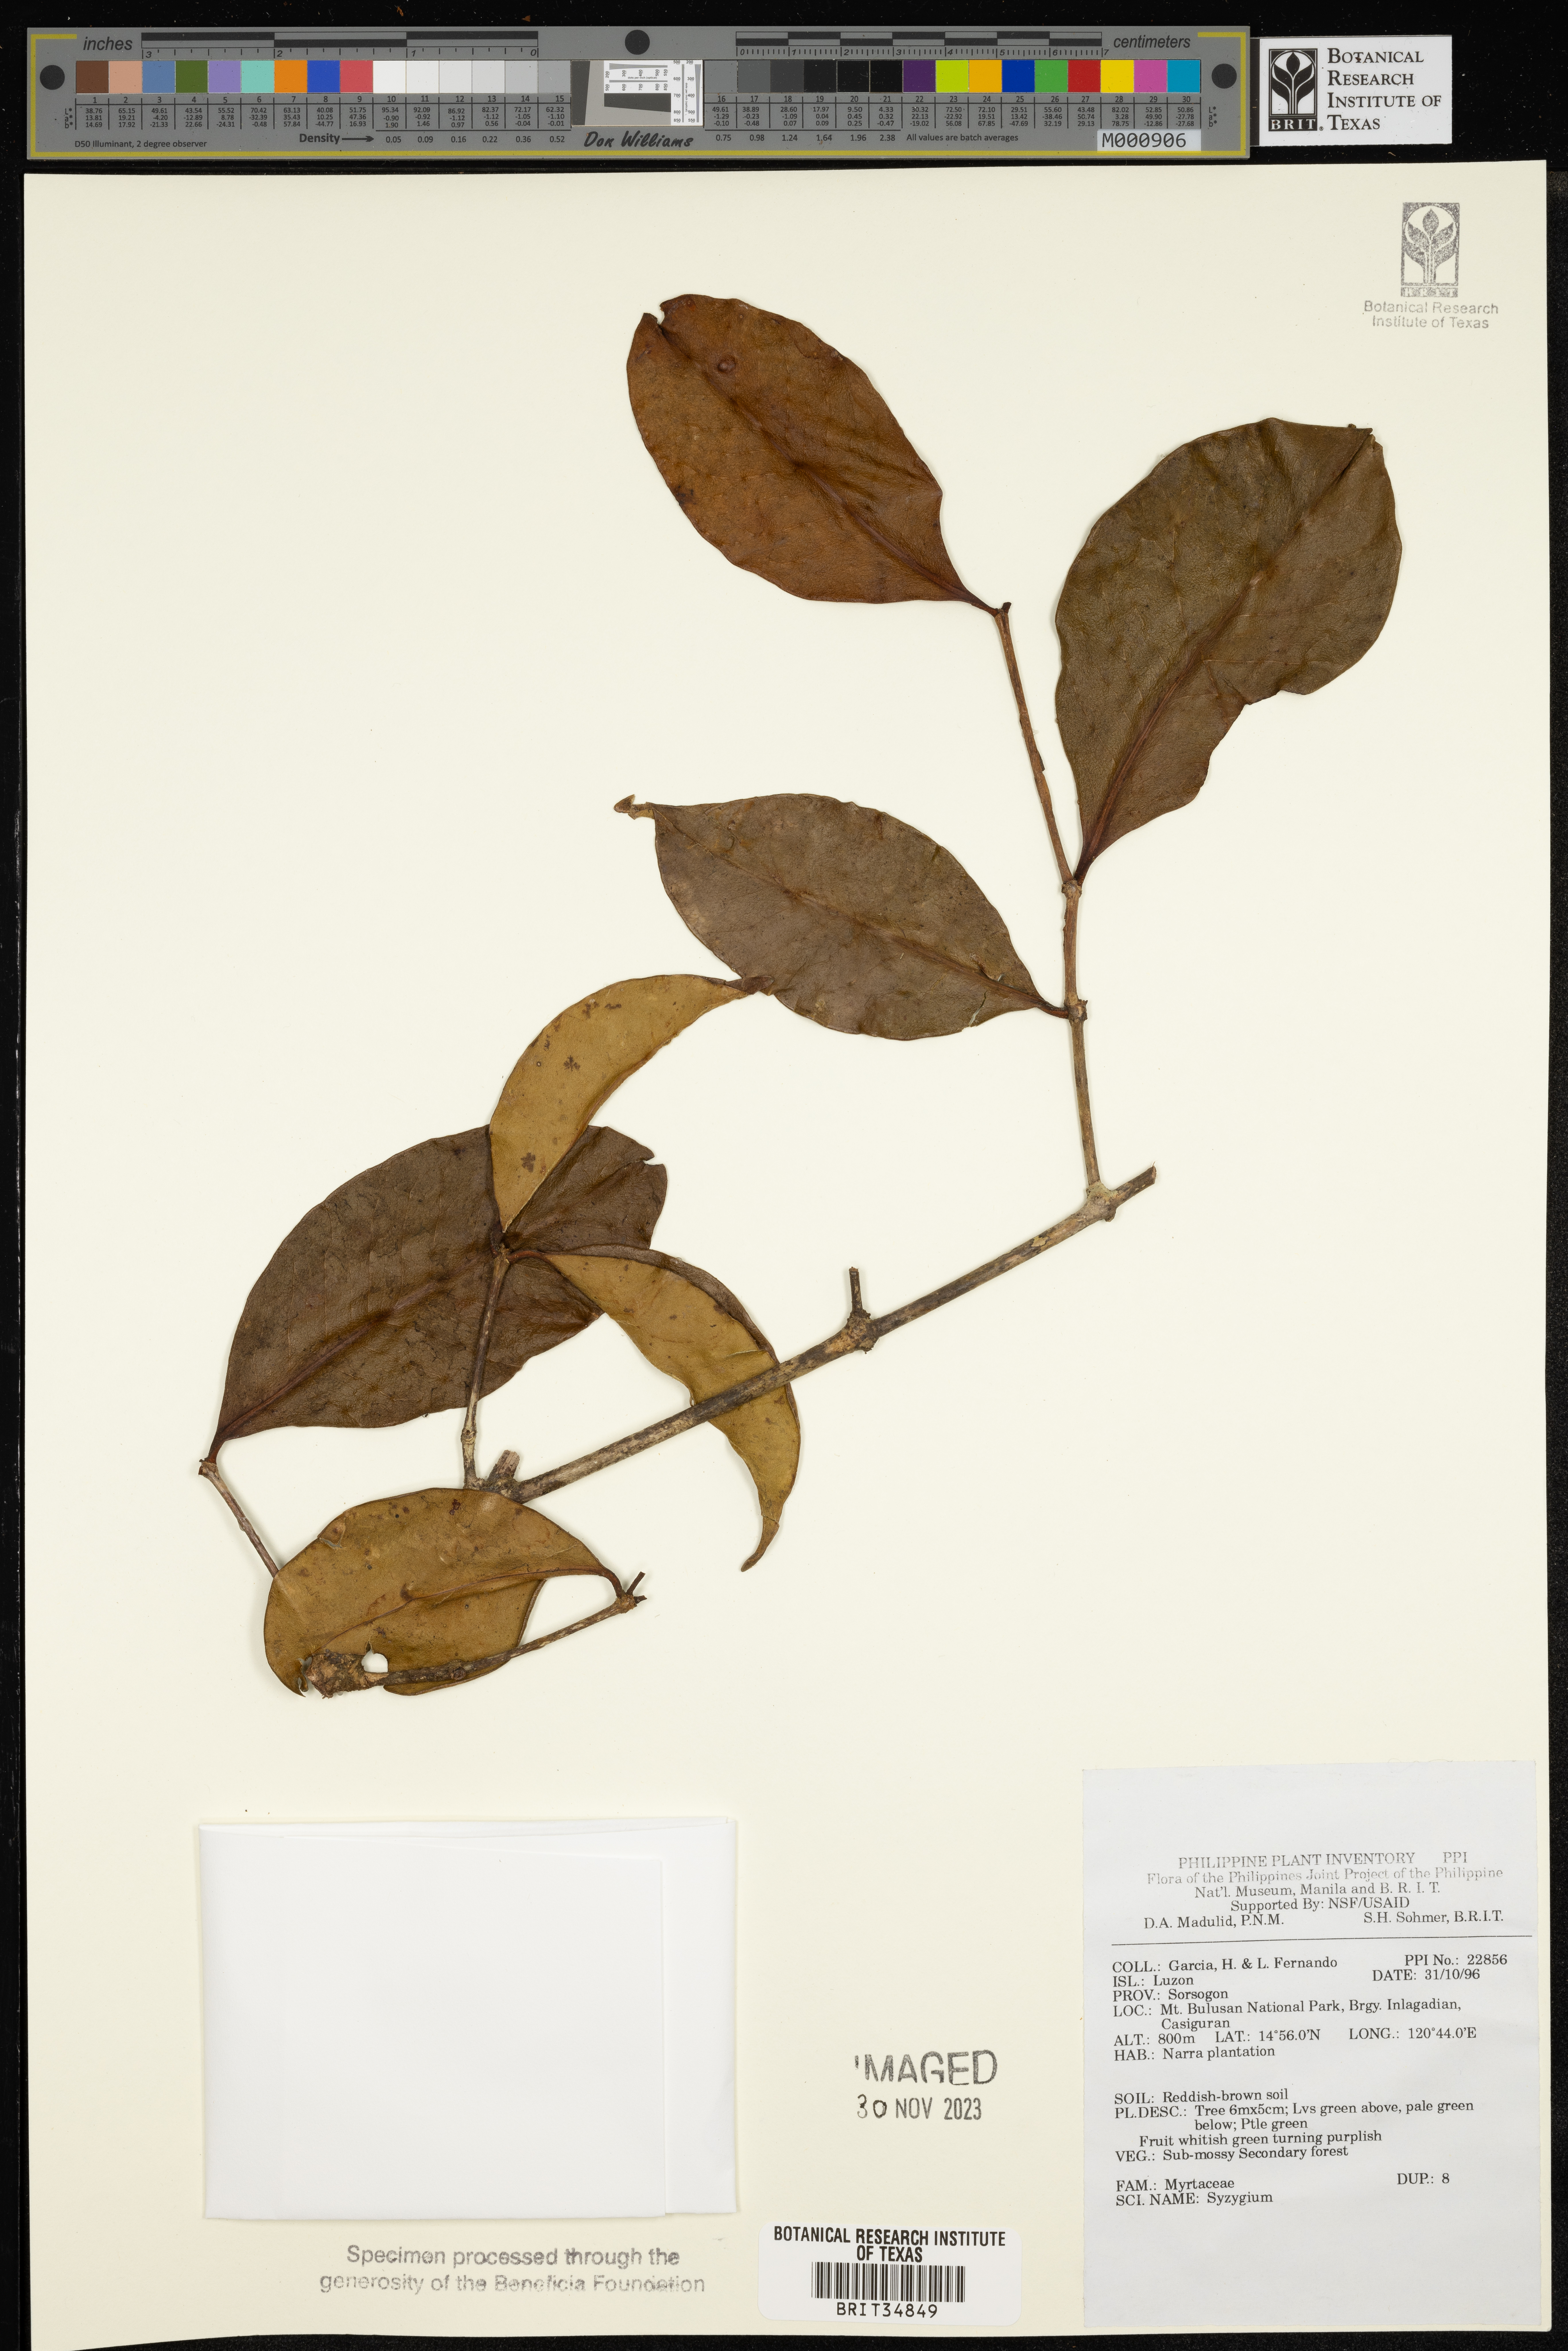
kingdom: Plantae
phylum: Tracheophyta
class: Magnoliopsida
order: Myrtales
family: Myrtaceae
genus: Syzygium
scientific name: Syzygium
